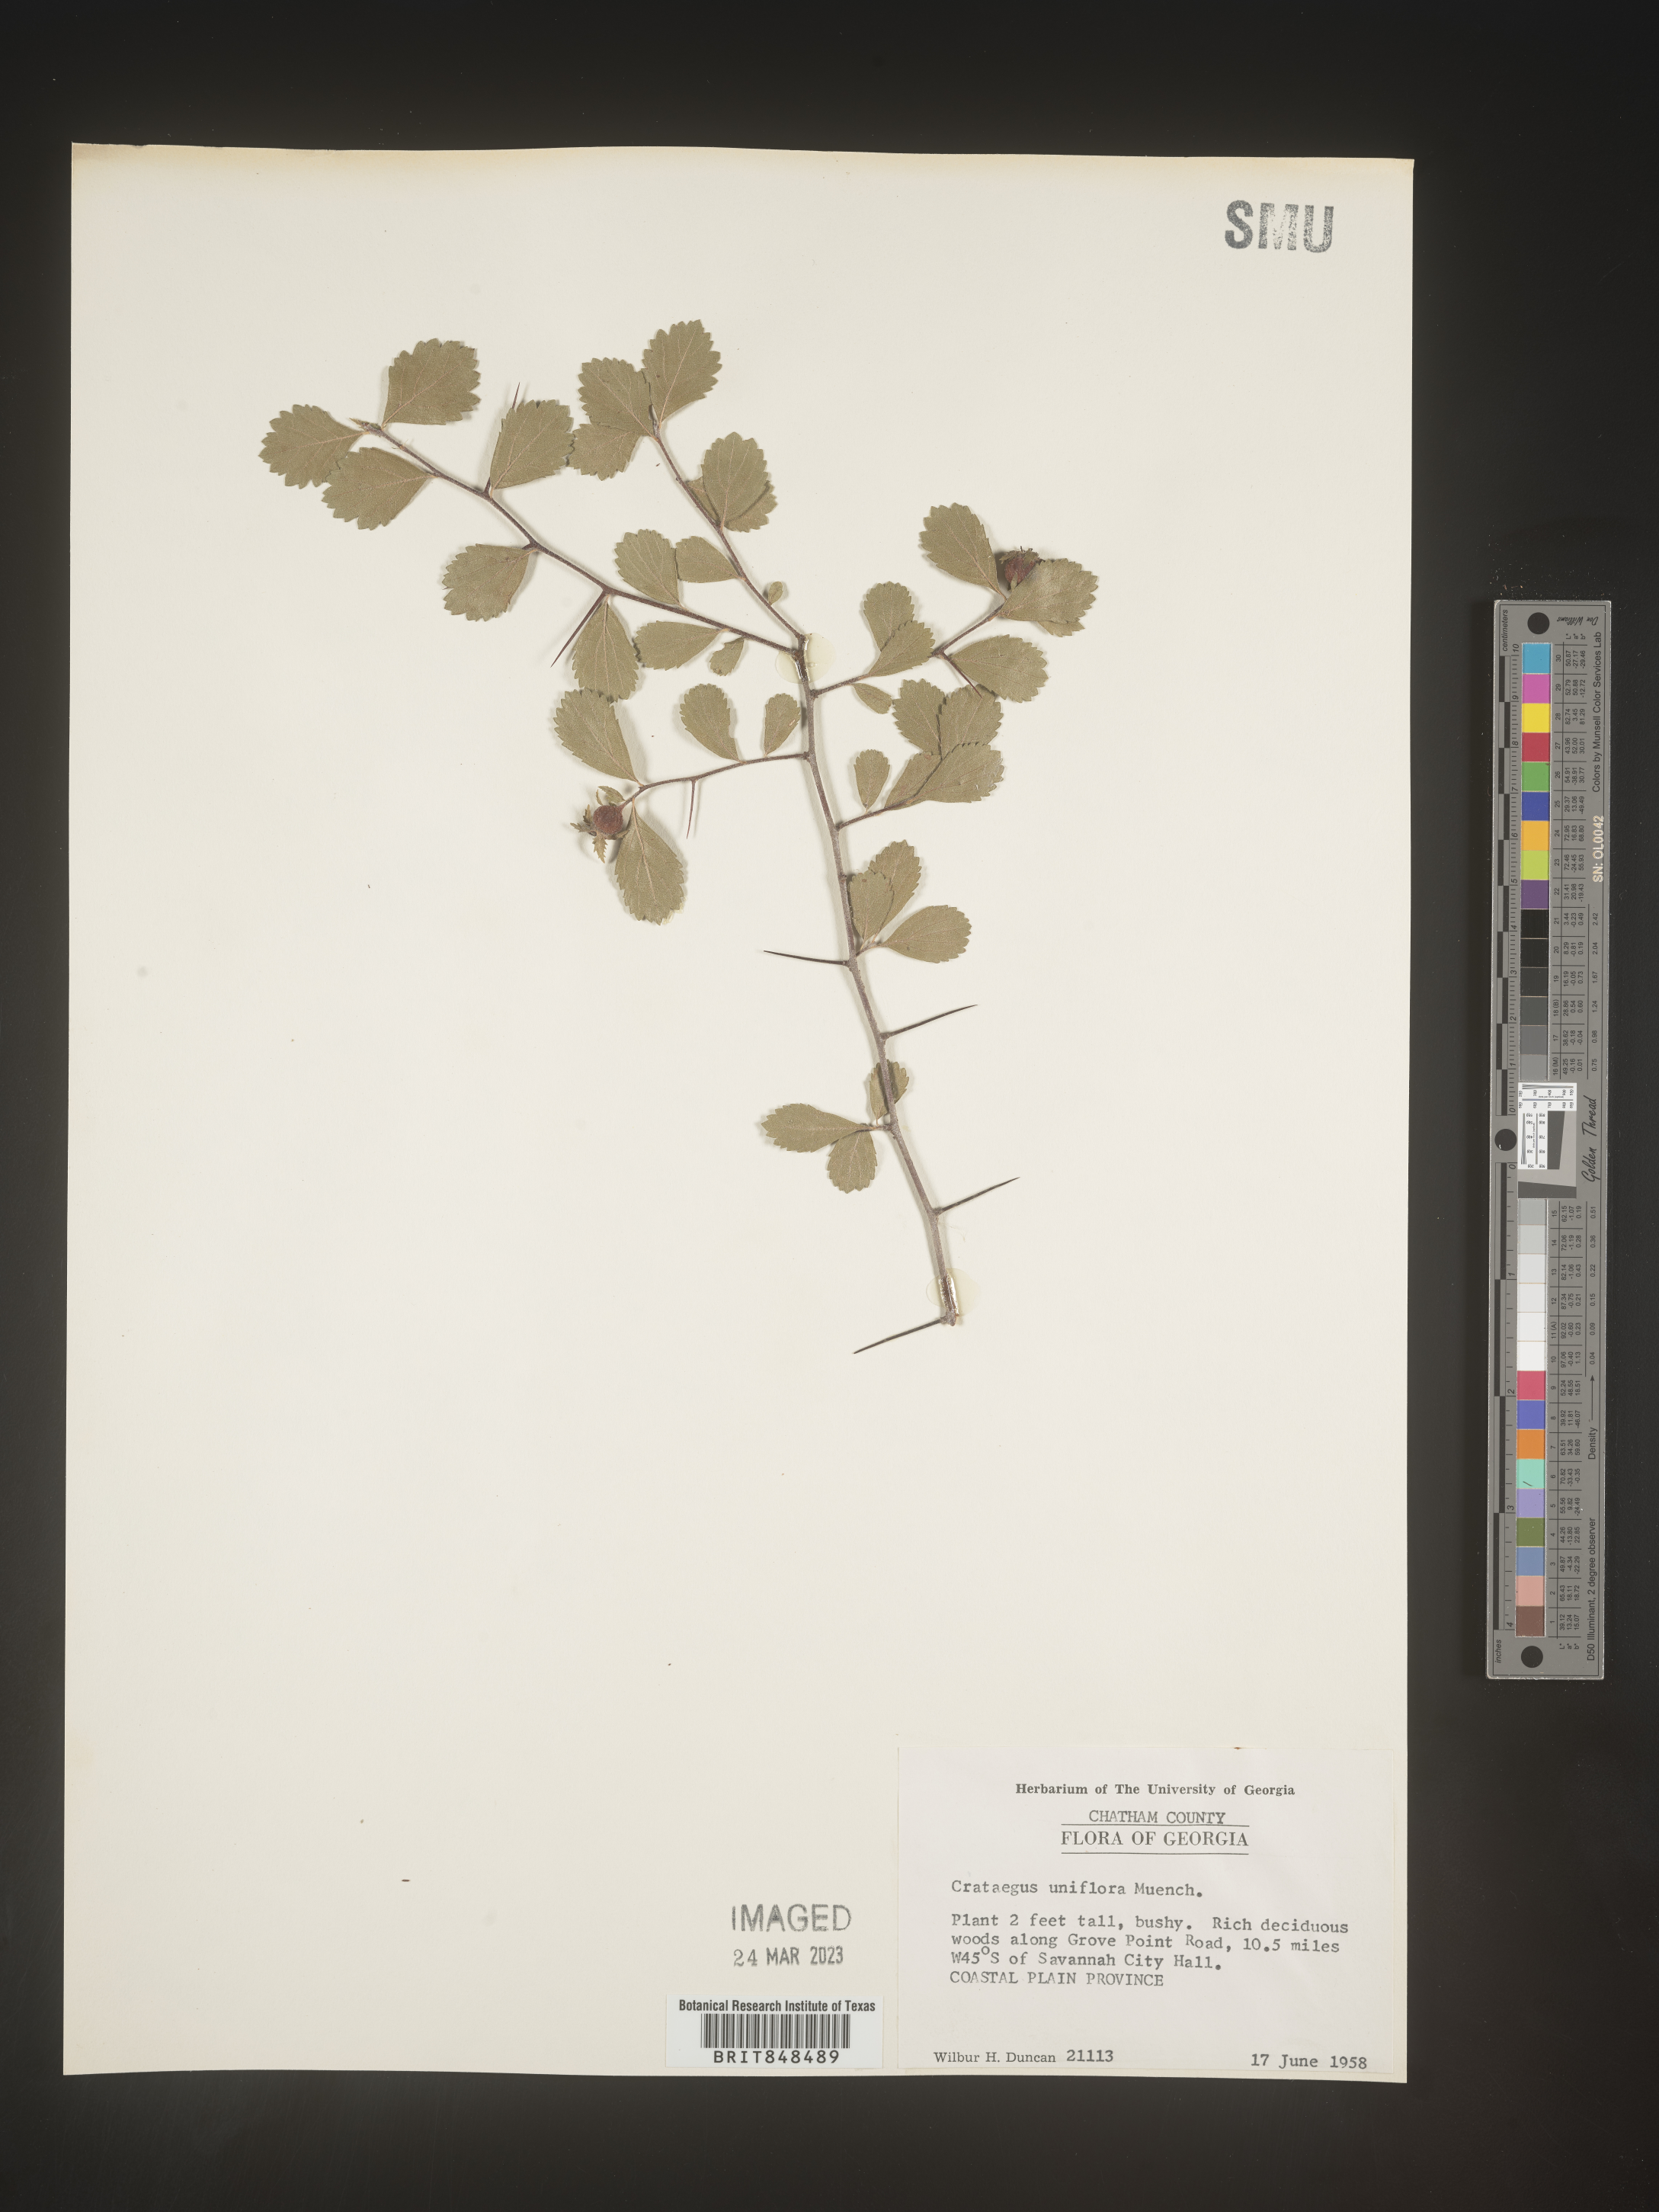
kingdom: Plantae
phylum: Tracheophyta
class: Magnoliopsida
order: Rosales
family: Rosaceae
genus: Crataegus
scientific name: Crataegus uniflora
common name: One-flower hawthorn
